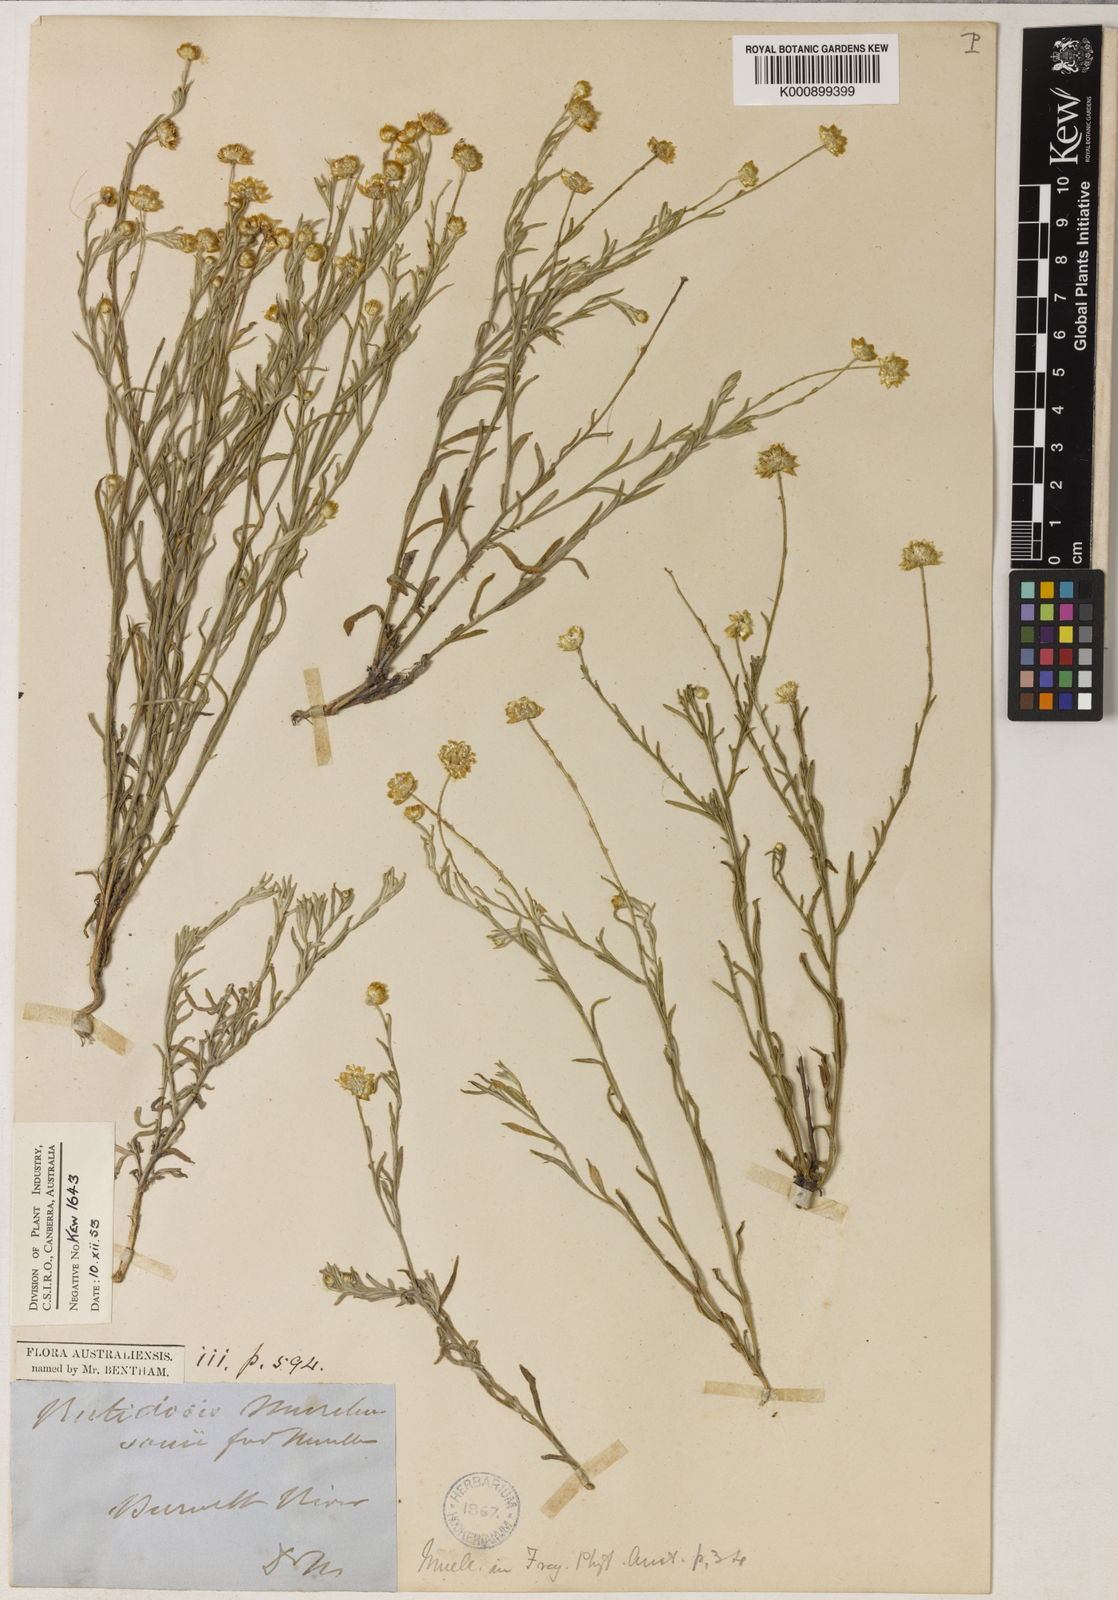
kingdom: Plantae
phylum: Tracheophyta
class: Magnoliopsida
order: Asterales
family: Asteraceae
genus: Rutidosis
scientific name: Rutidosis murchisonii
